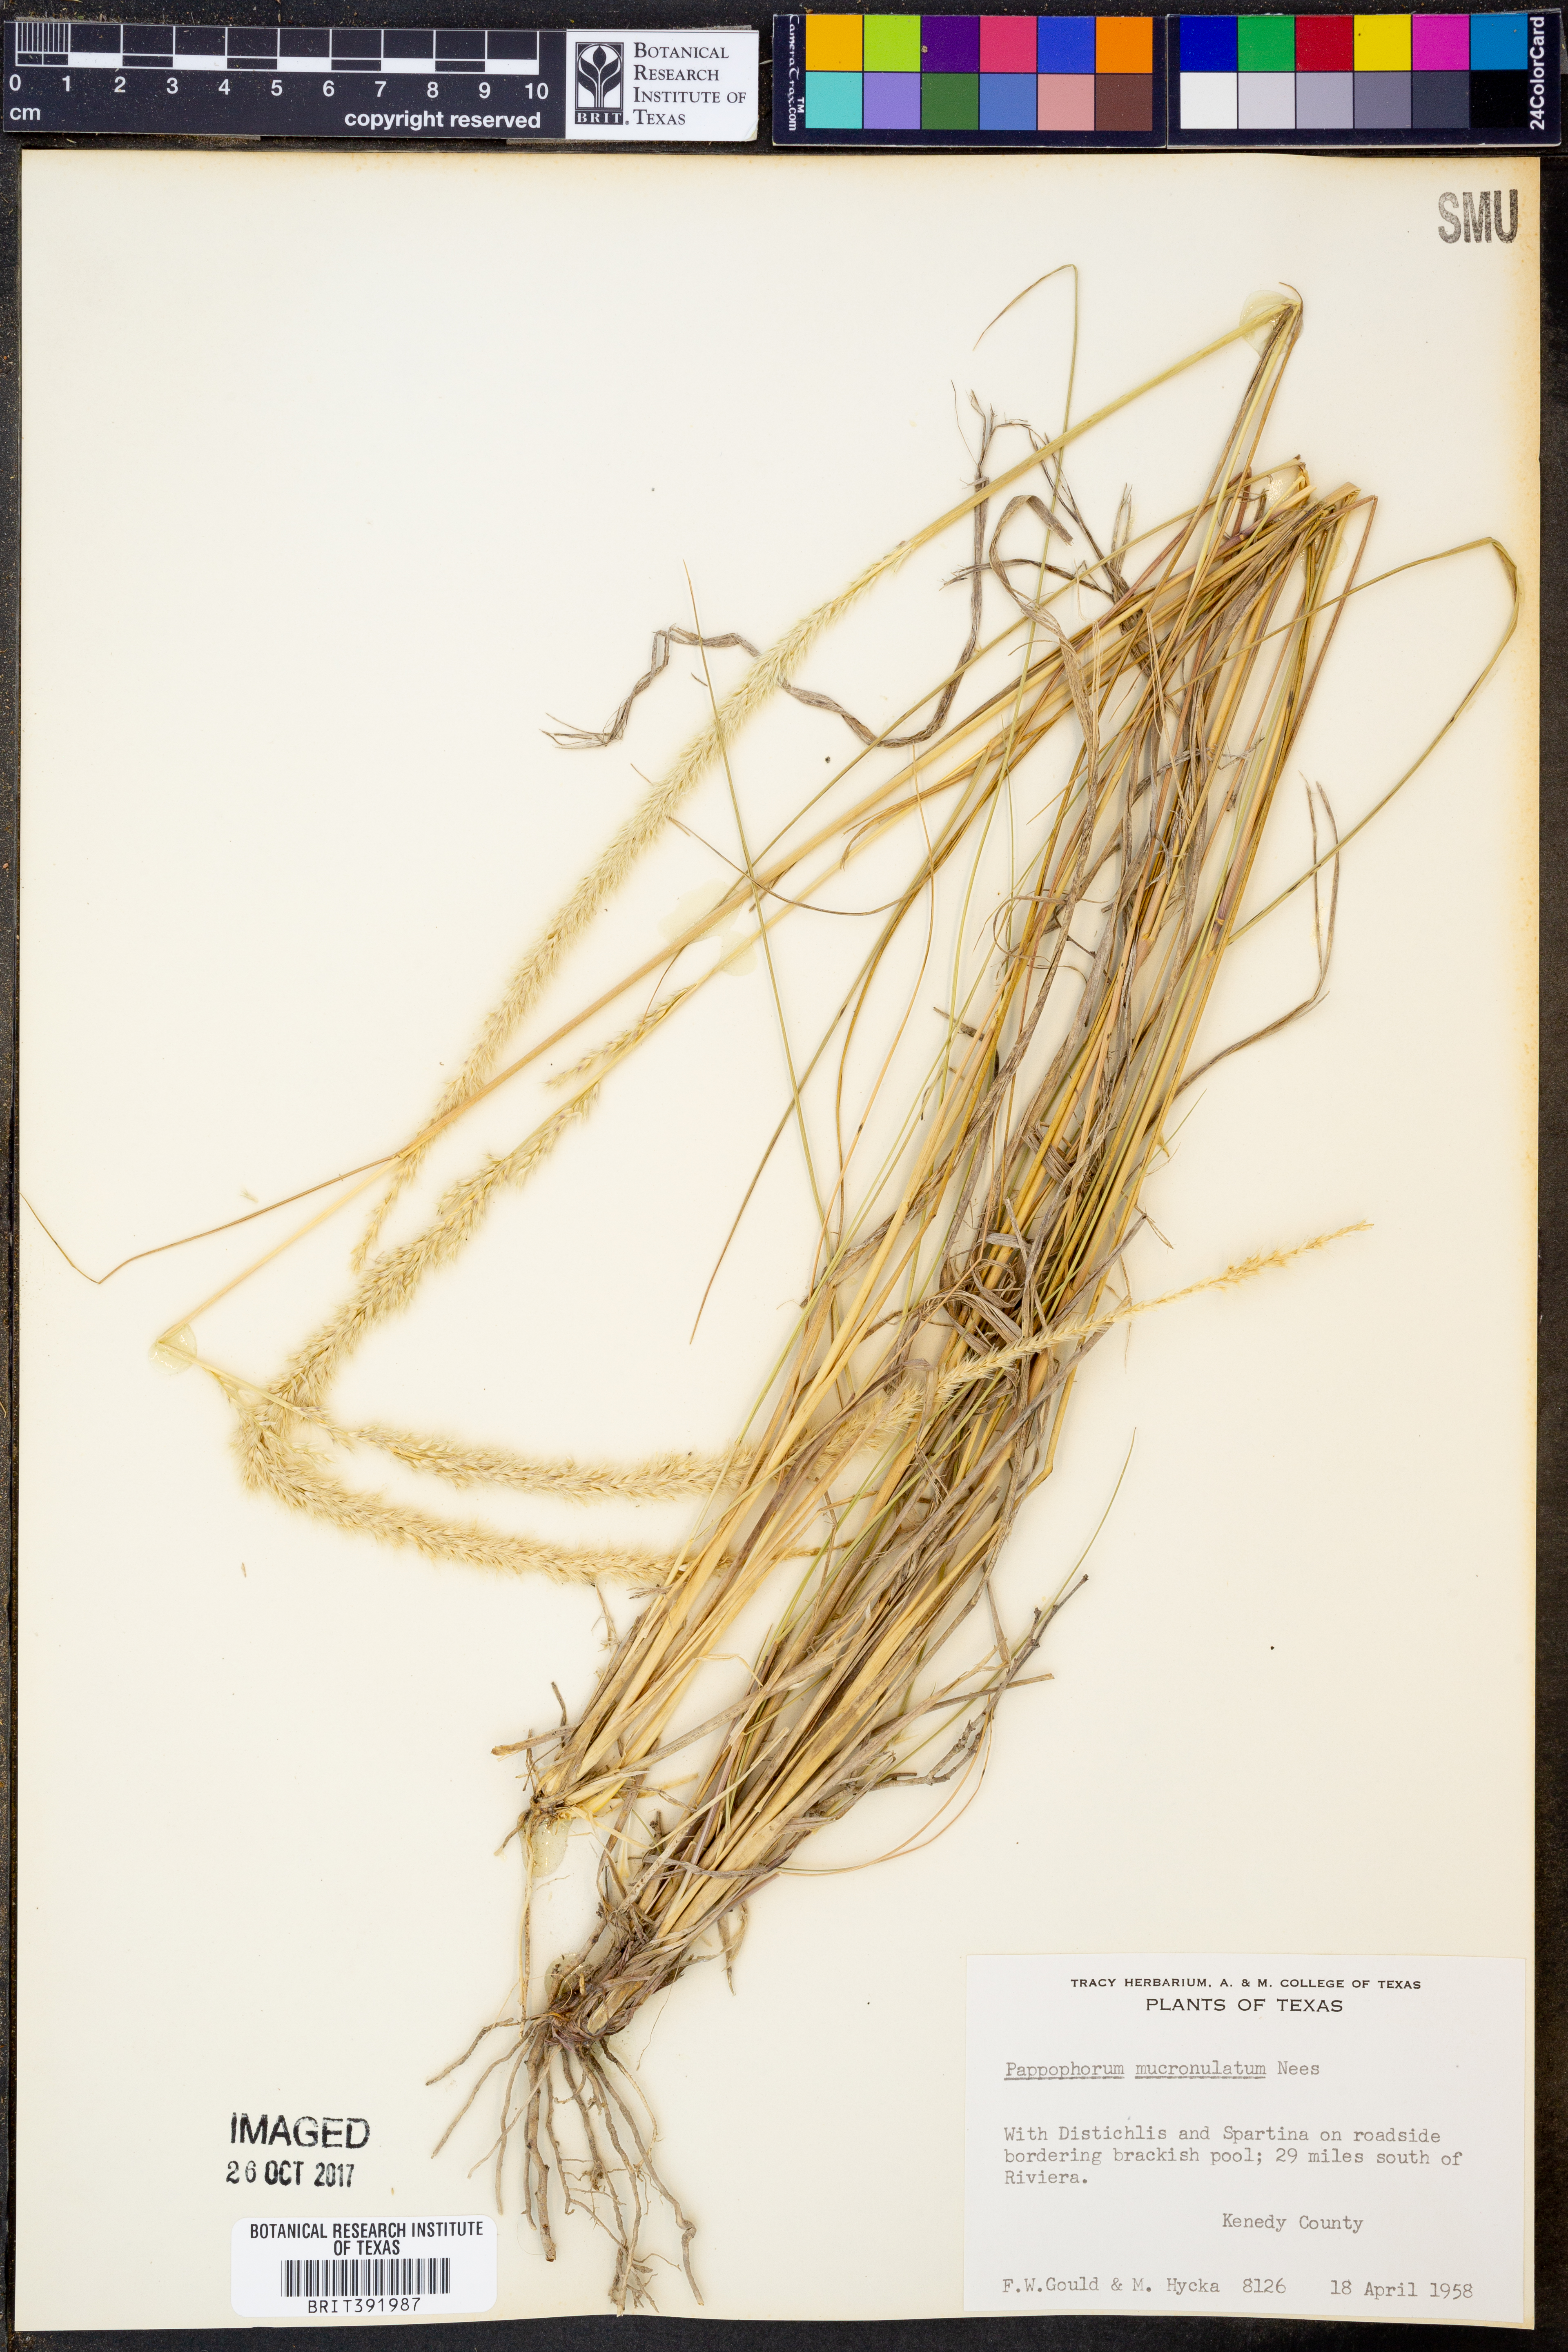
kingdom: Plantae
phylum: Tracheophyta
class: Liliopsida
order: Poales
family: Poaceae
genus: Pappophorum
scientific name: Pappophorum mucronulatum
